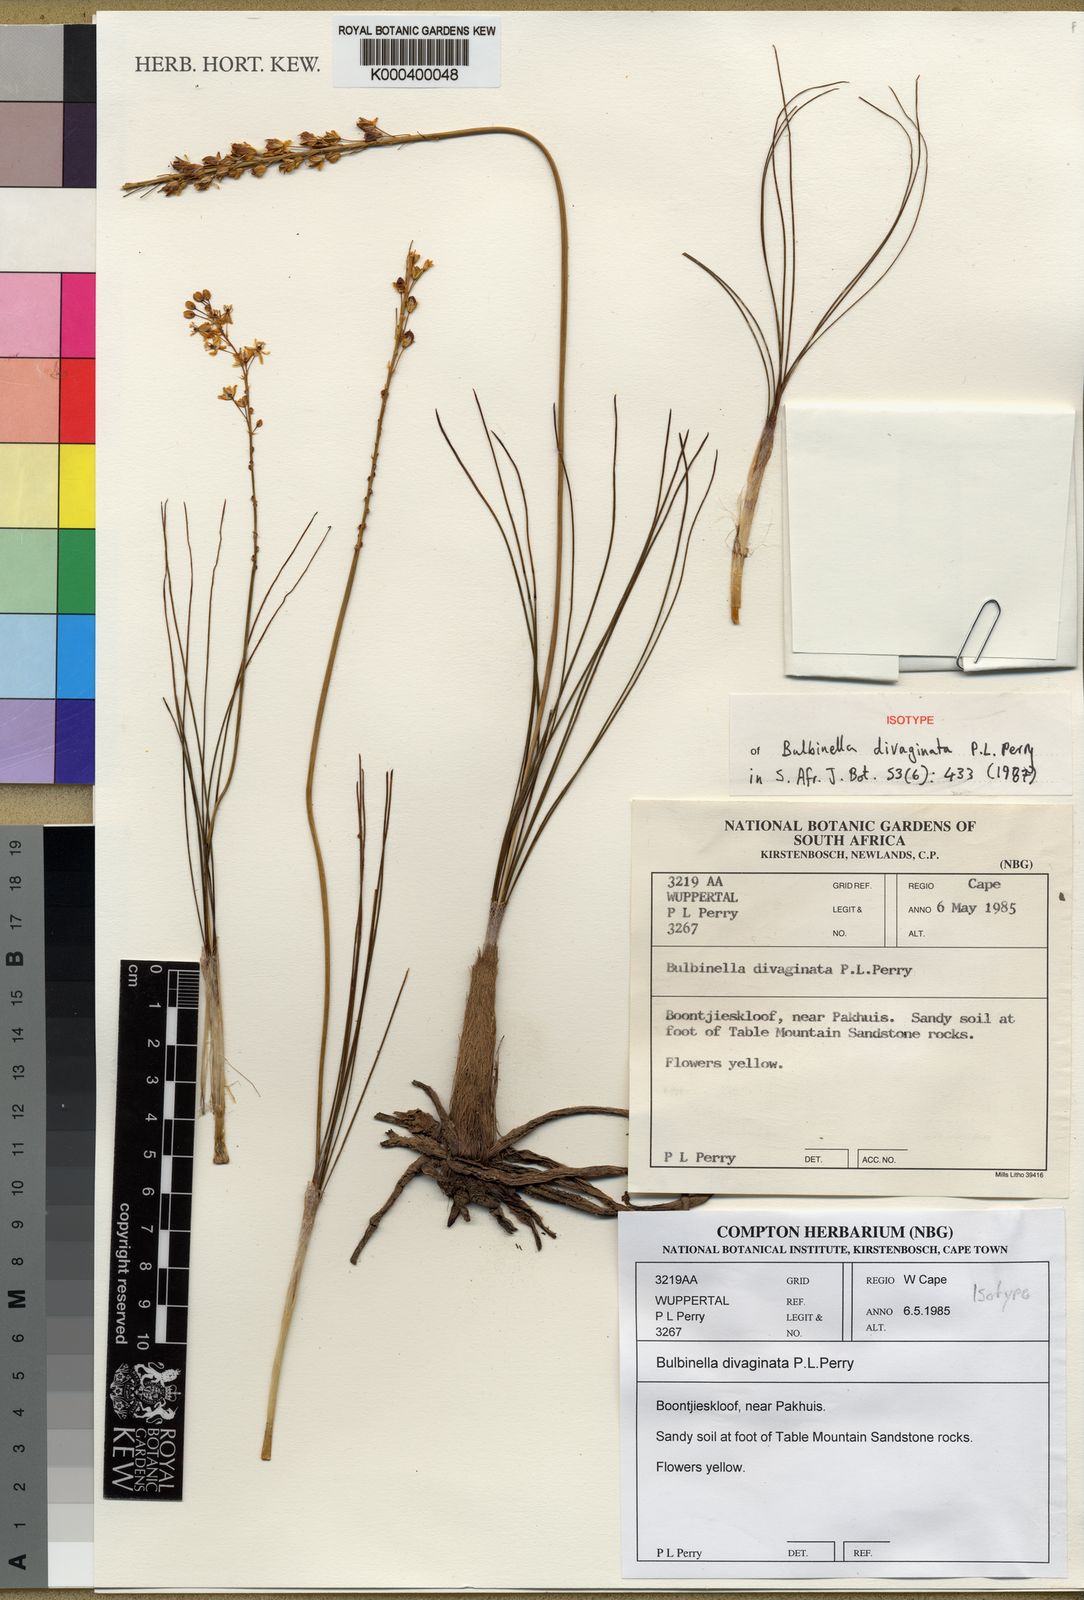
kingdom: Plantae
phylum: Tracheophyta
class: Liliopsida
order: Asparagales
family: Asphodelaceae
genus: Bulbinella
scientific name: Bulbinella divaginata
